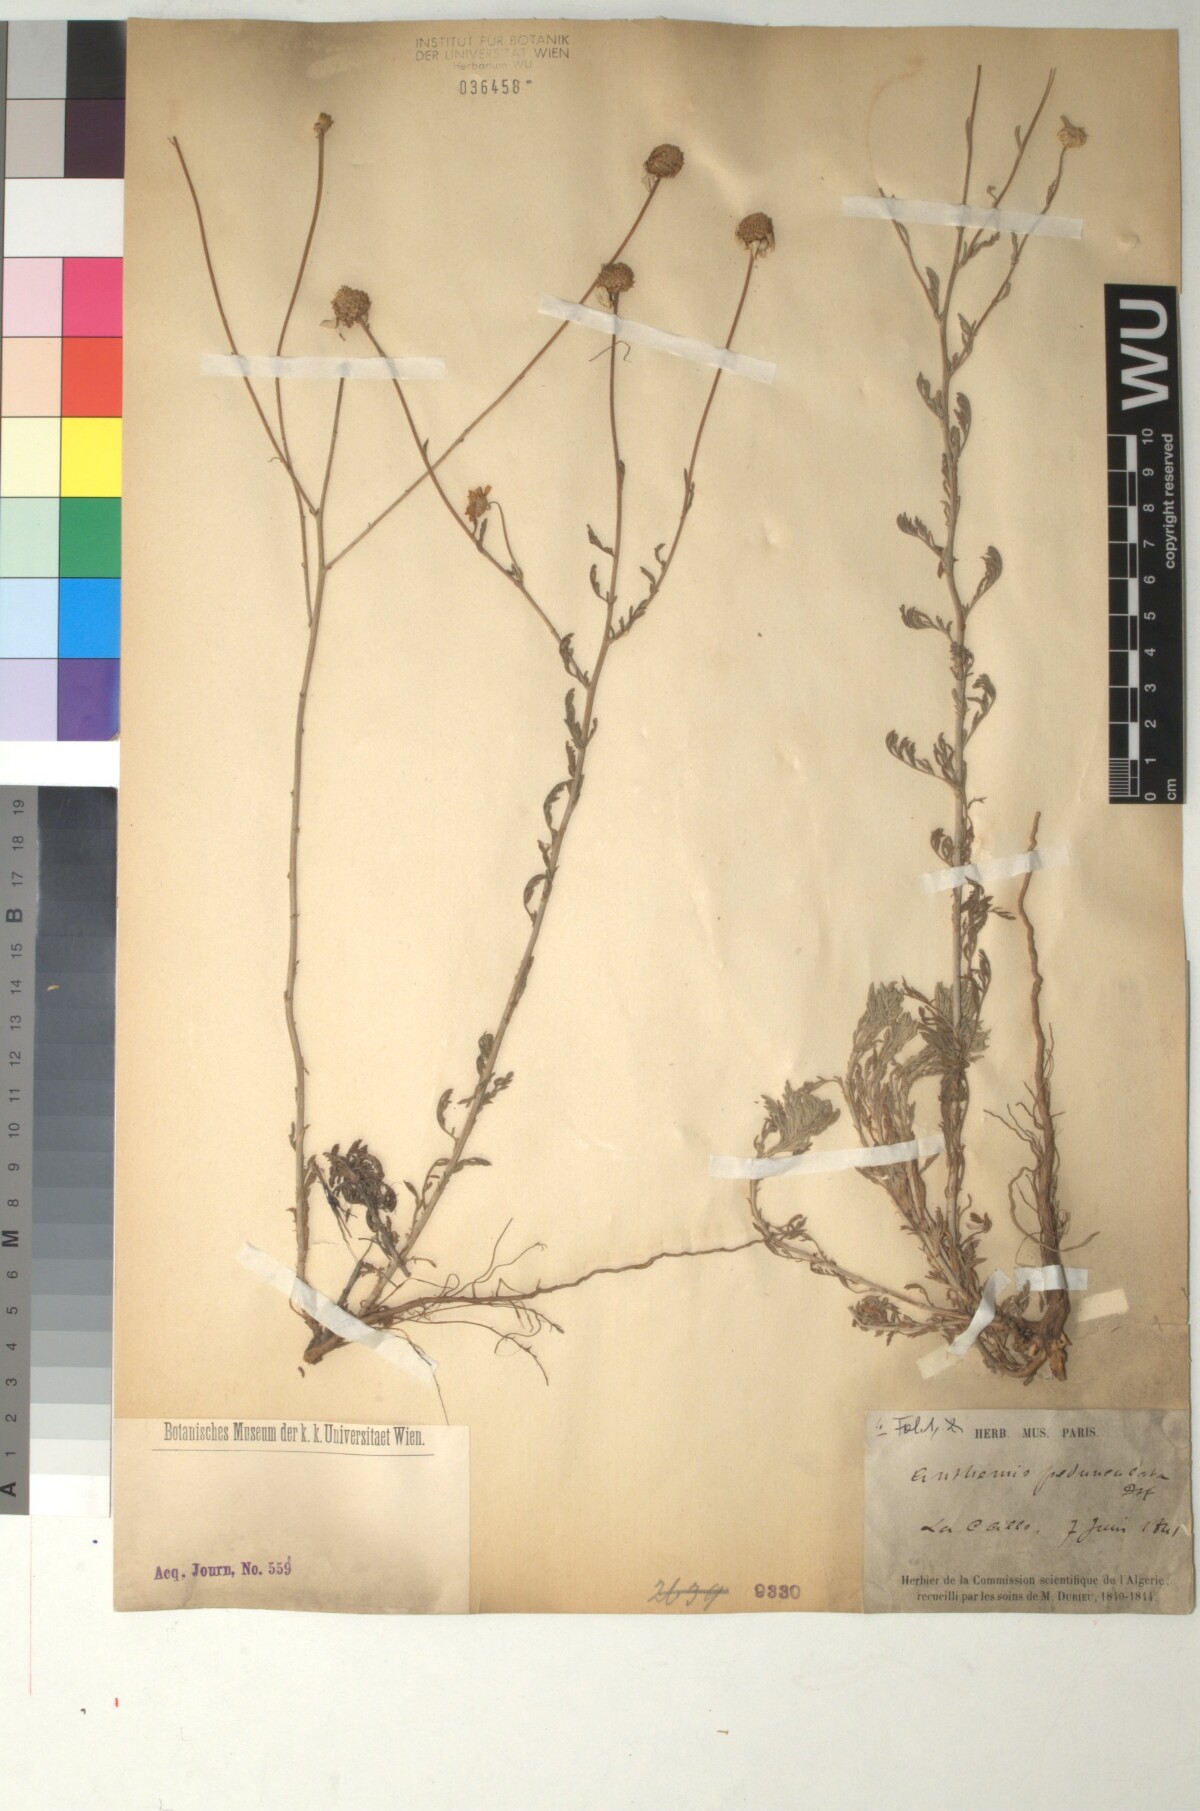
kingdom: Plantae
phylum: Tracheophyta
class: Magnoliopsida
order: Asterales
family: Asteraceae
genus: Anthemis
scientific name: Anthemis pedunculata
